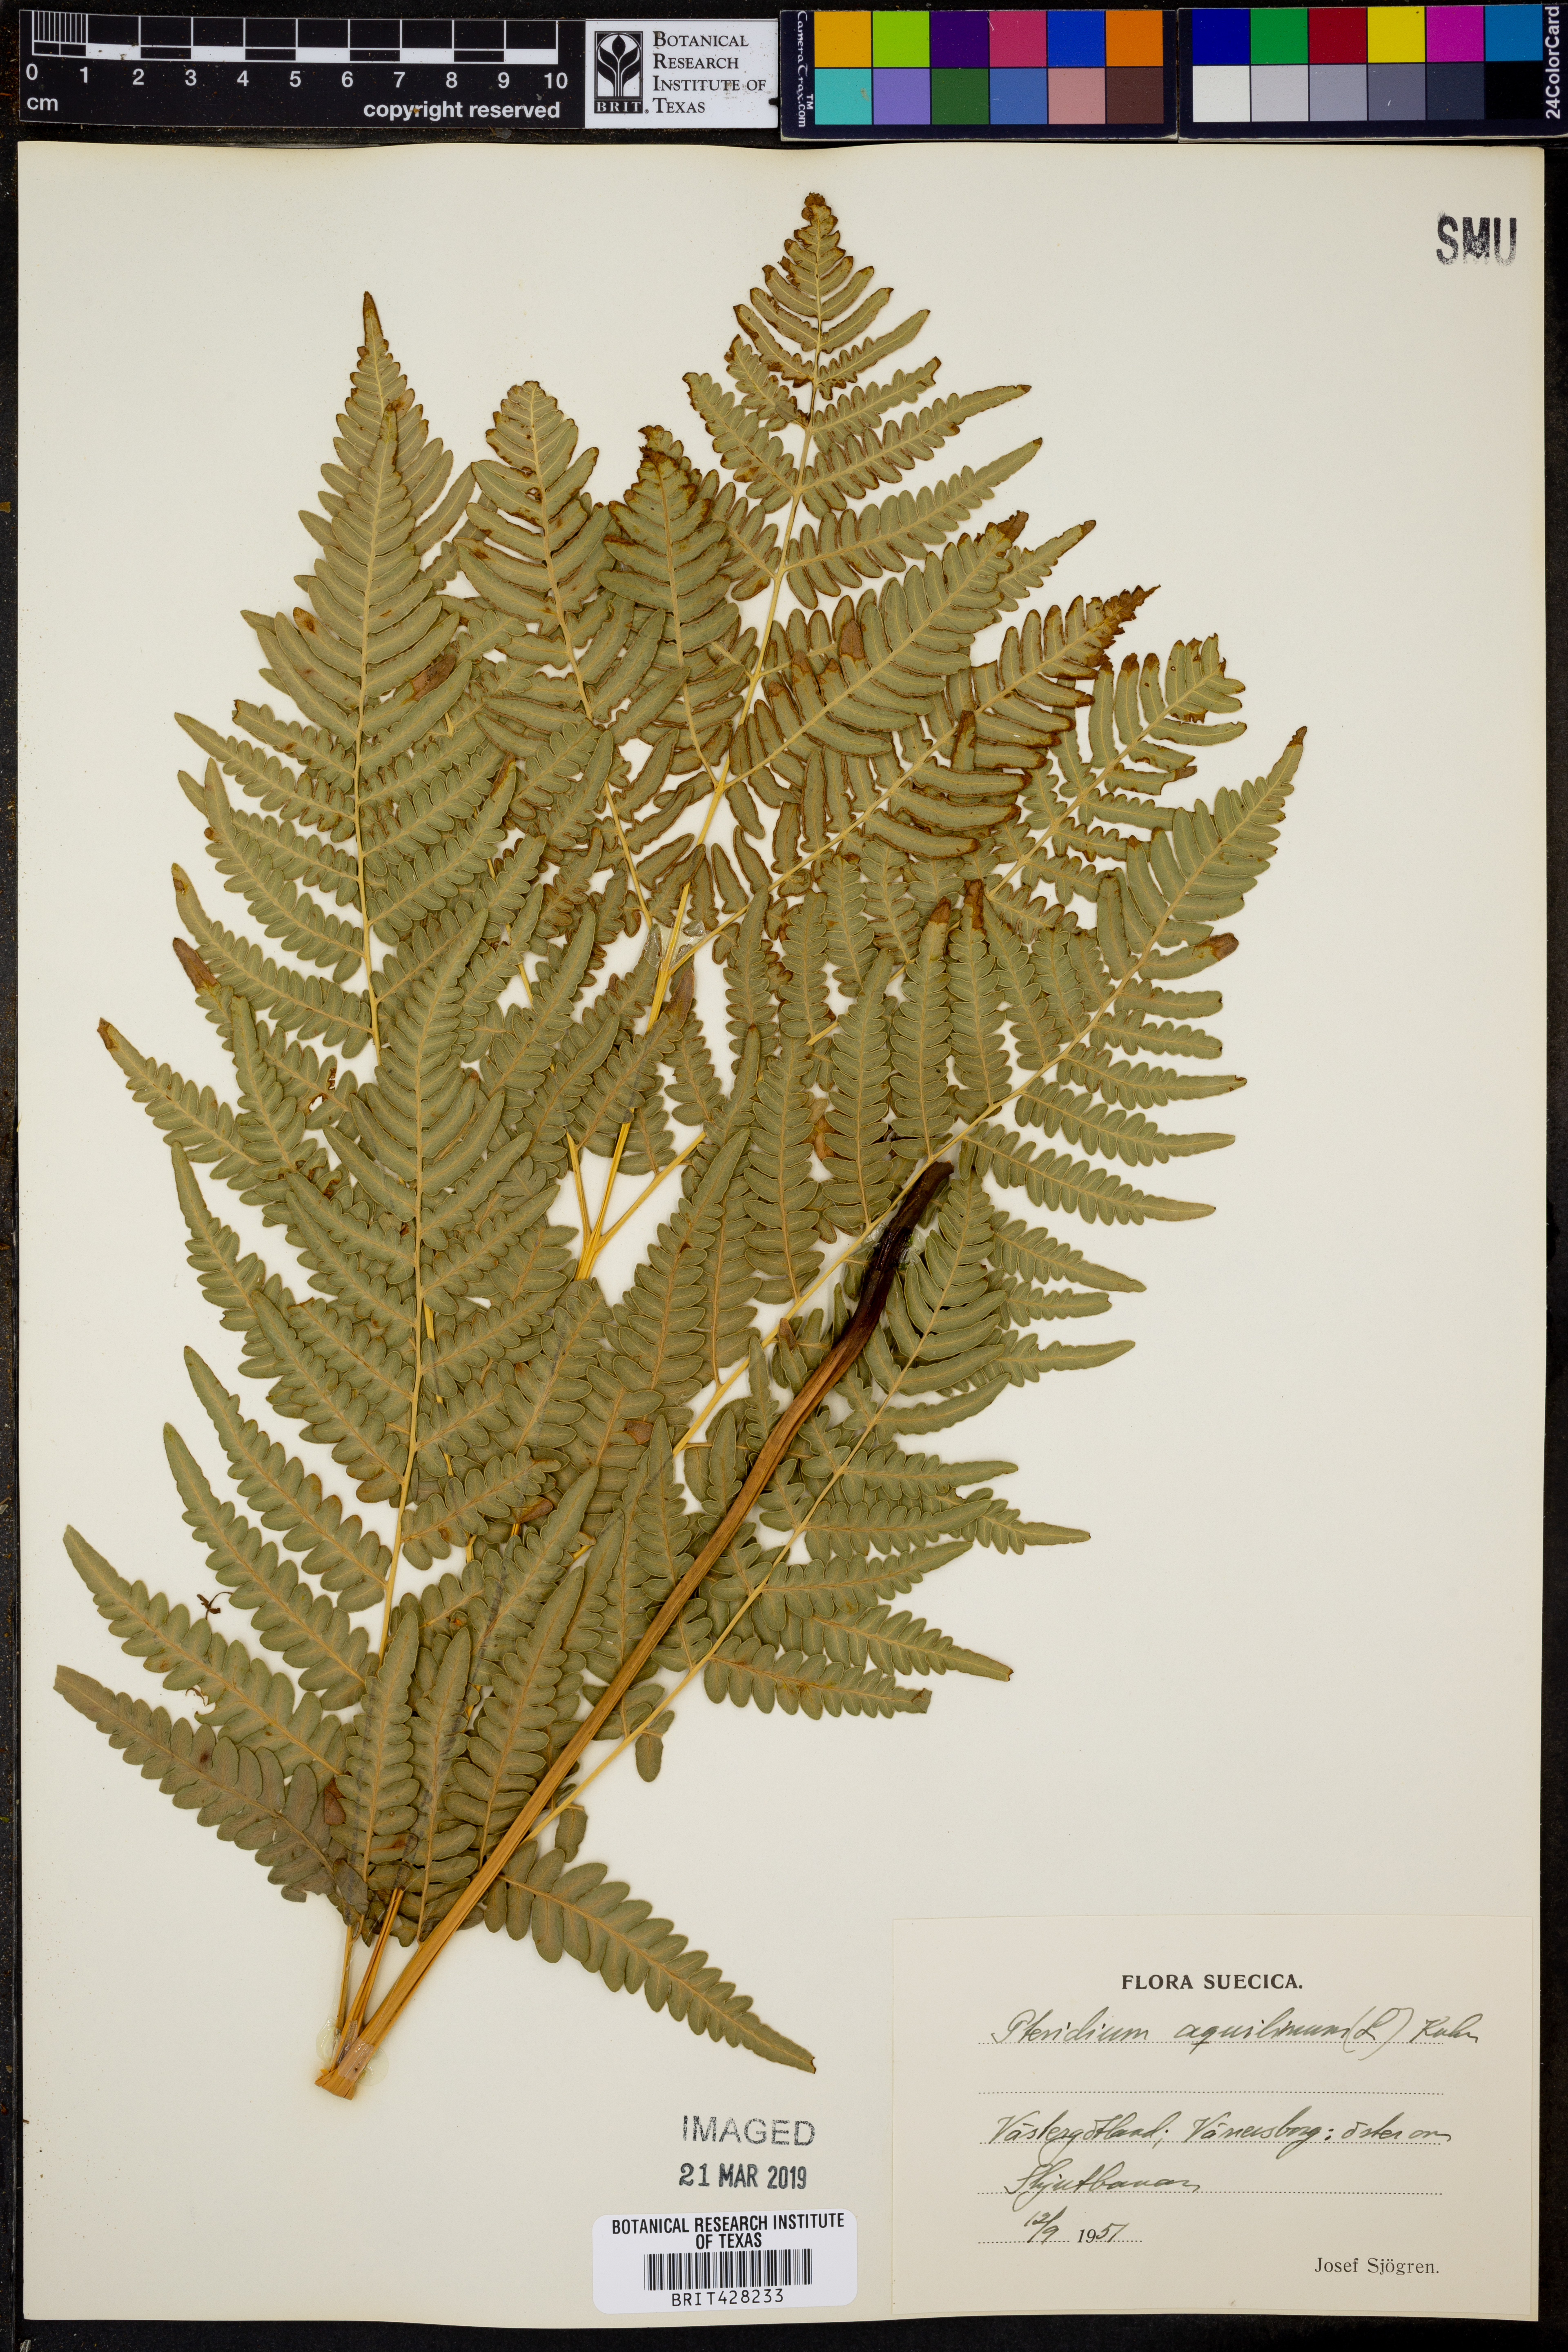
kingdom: Plantae
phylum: Tracheophyta
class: Polypodiopsida
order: Polypodiales
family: Dennstaedtiaceae
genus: Pteridium
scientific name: Pteridium aquilinum
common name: Bracken
